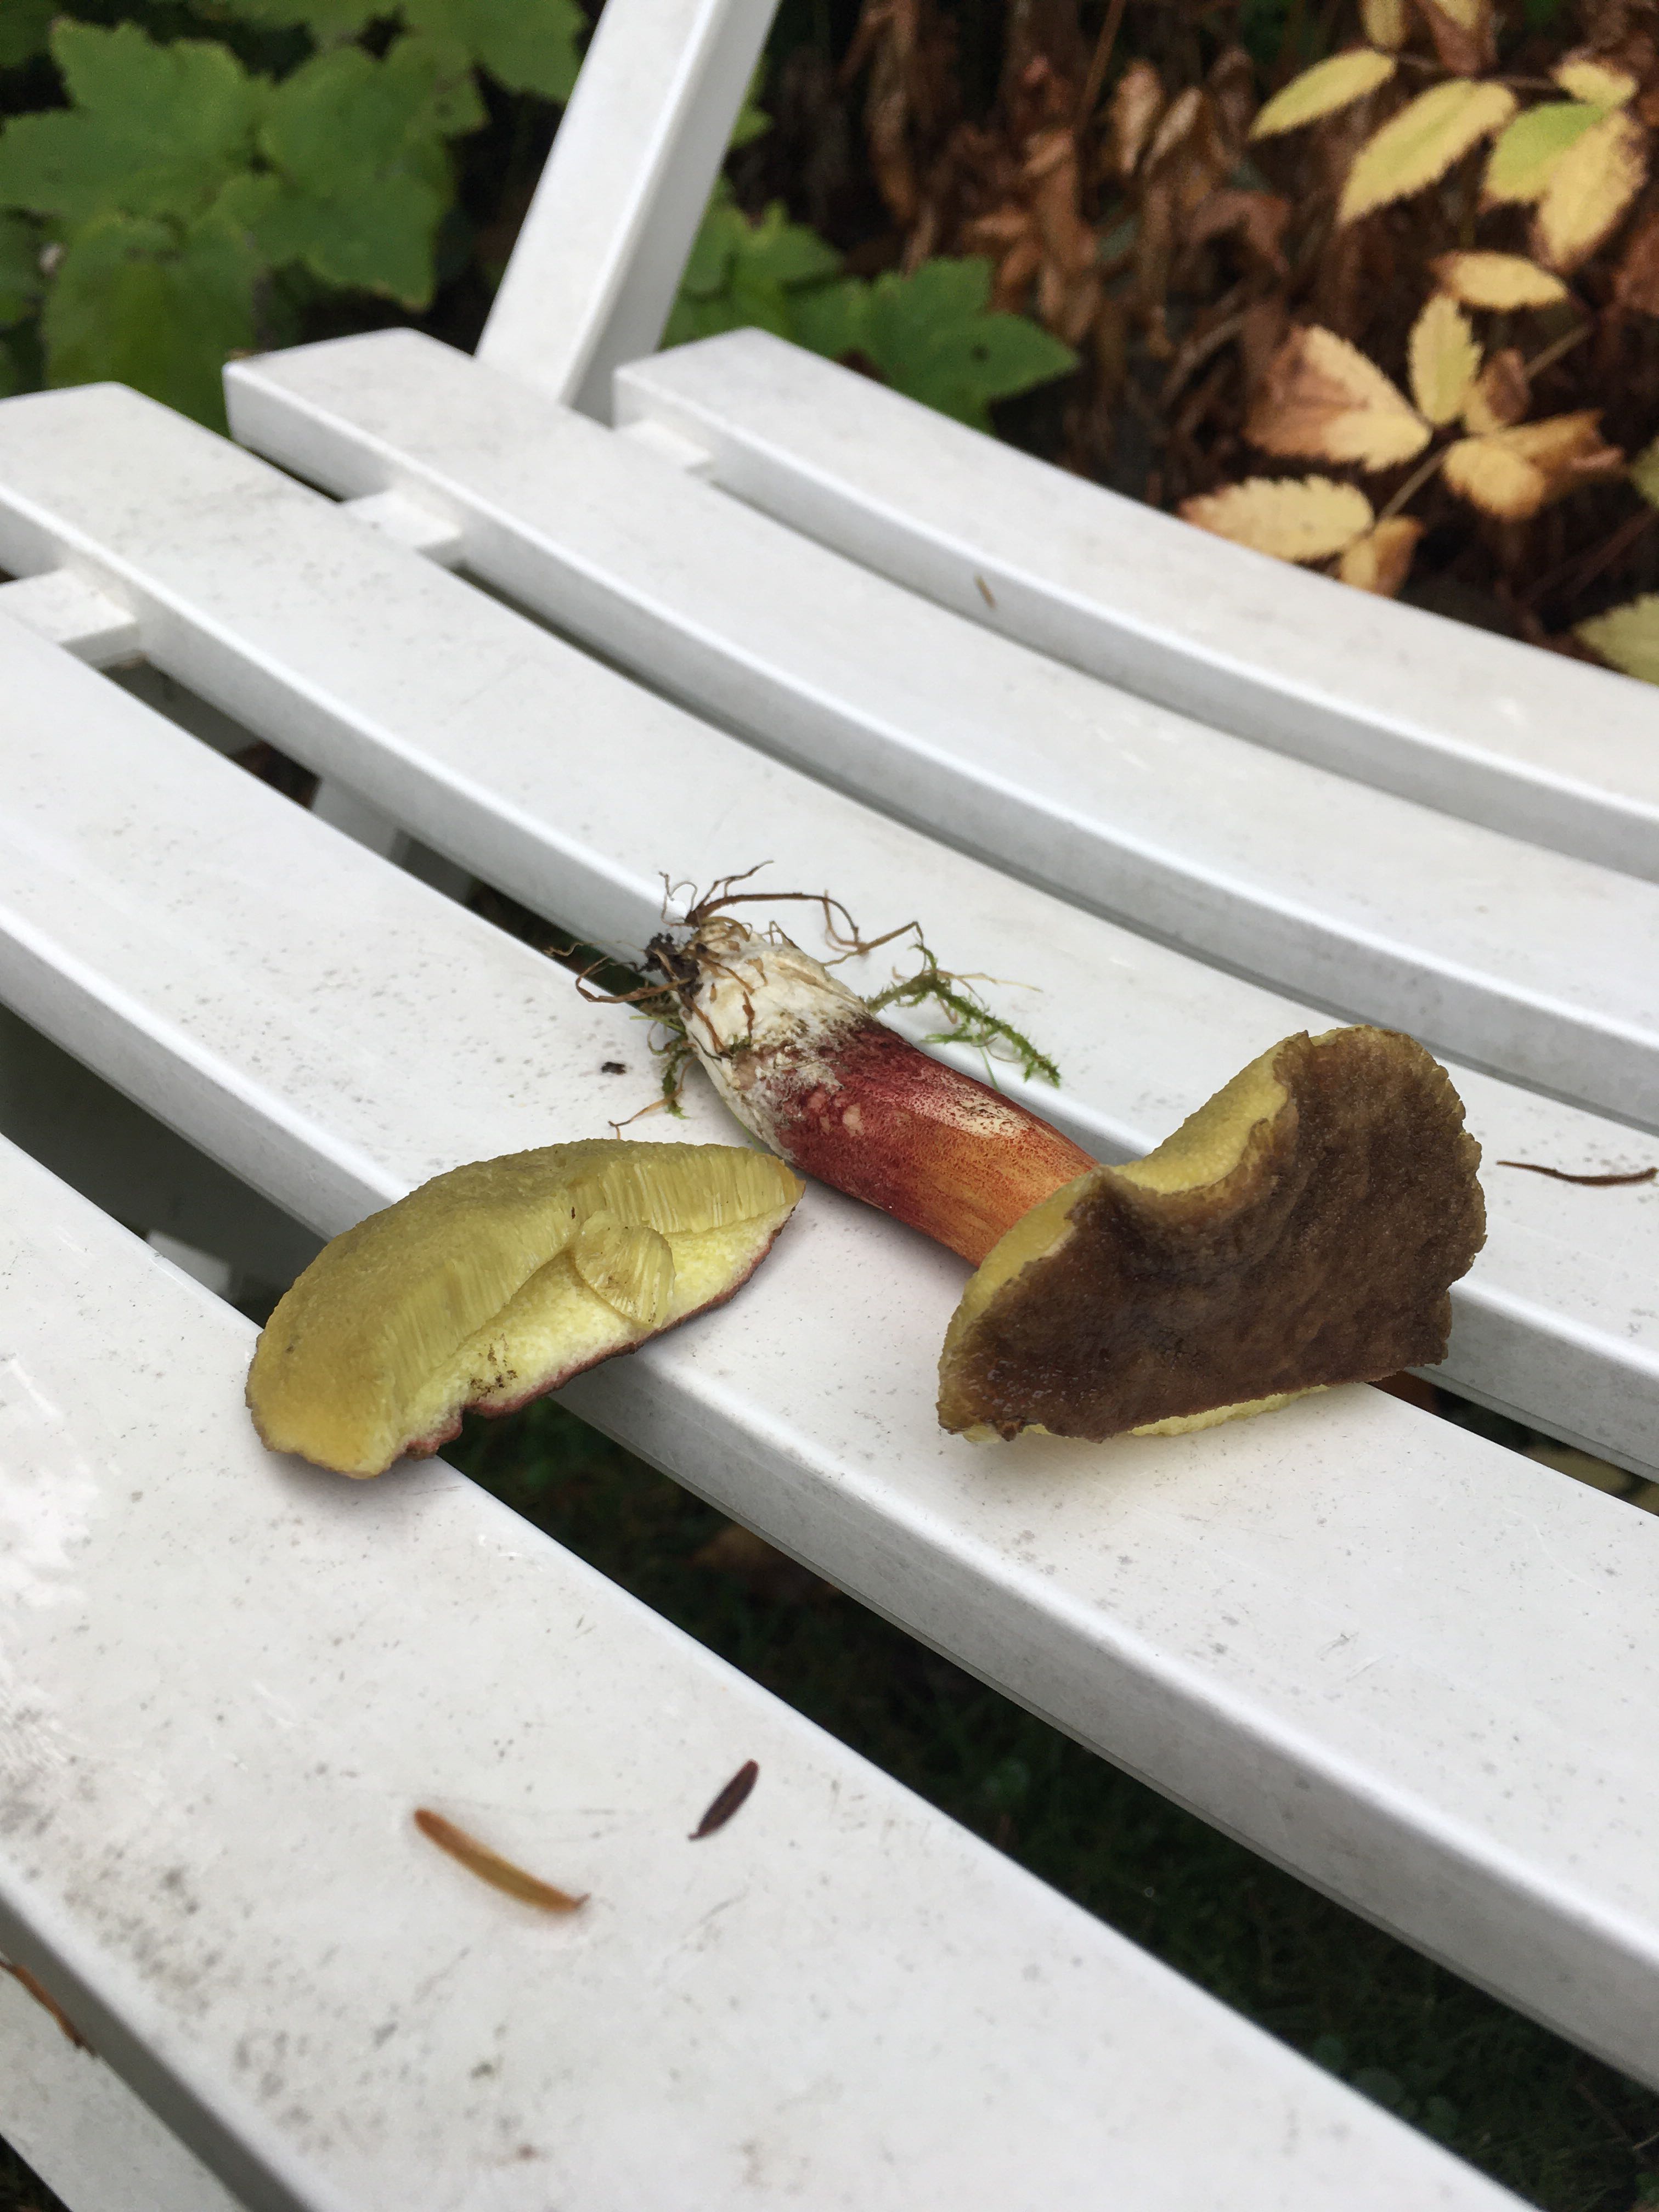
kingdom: Fungi
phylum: Basidiomycota
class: Agaricomycetes
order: Boletales
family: Boletaceae
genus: Xerocomellus
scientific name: Xerocomellus
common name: dværgrørhat
